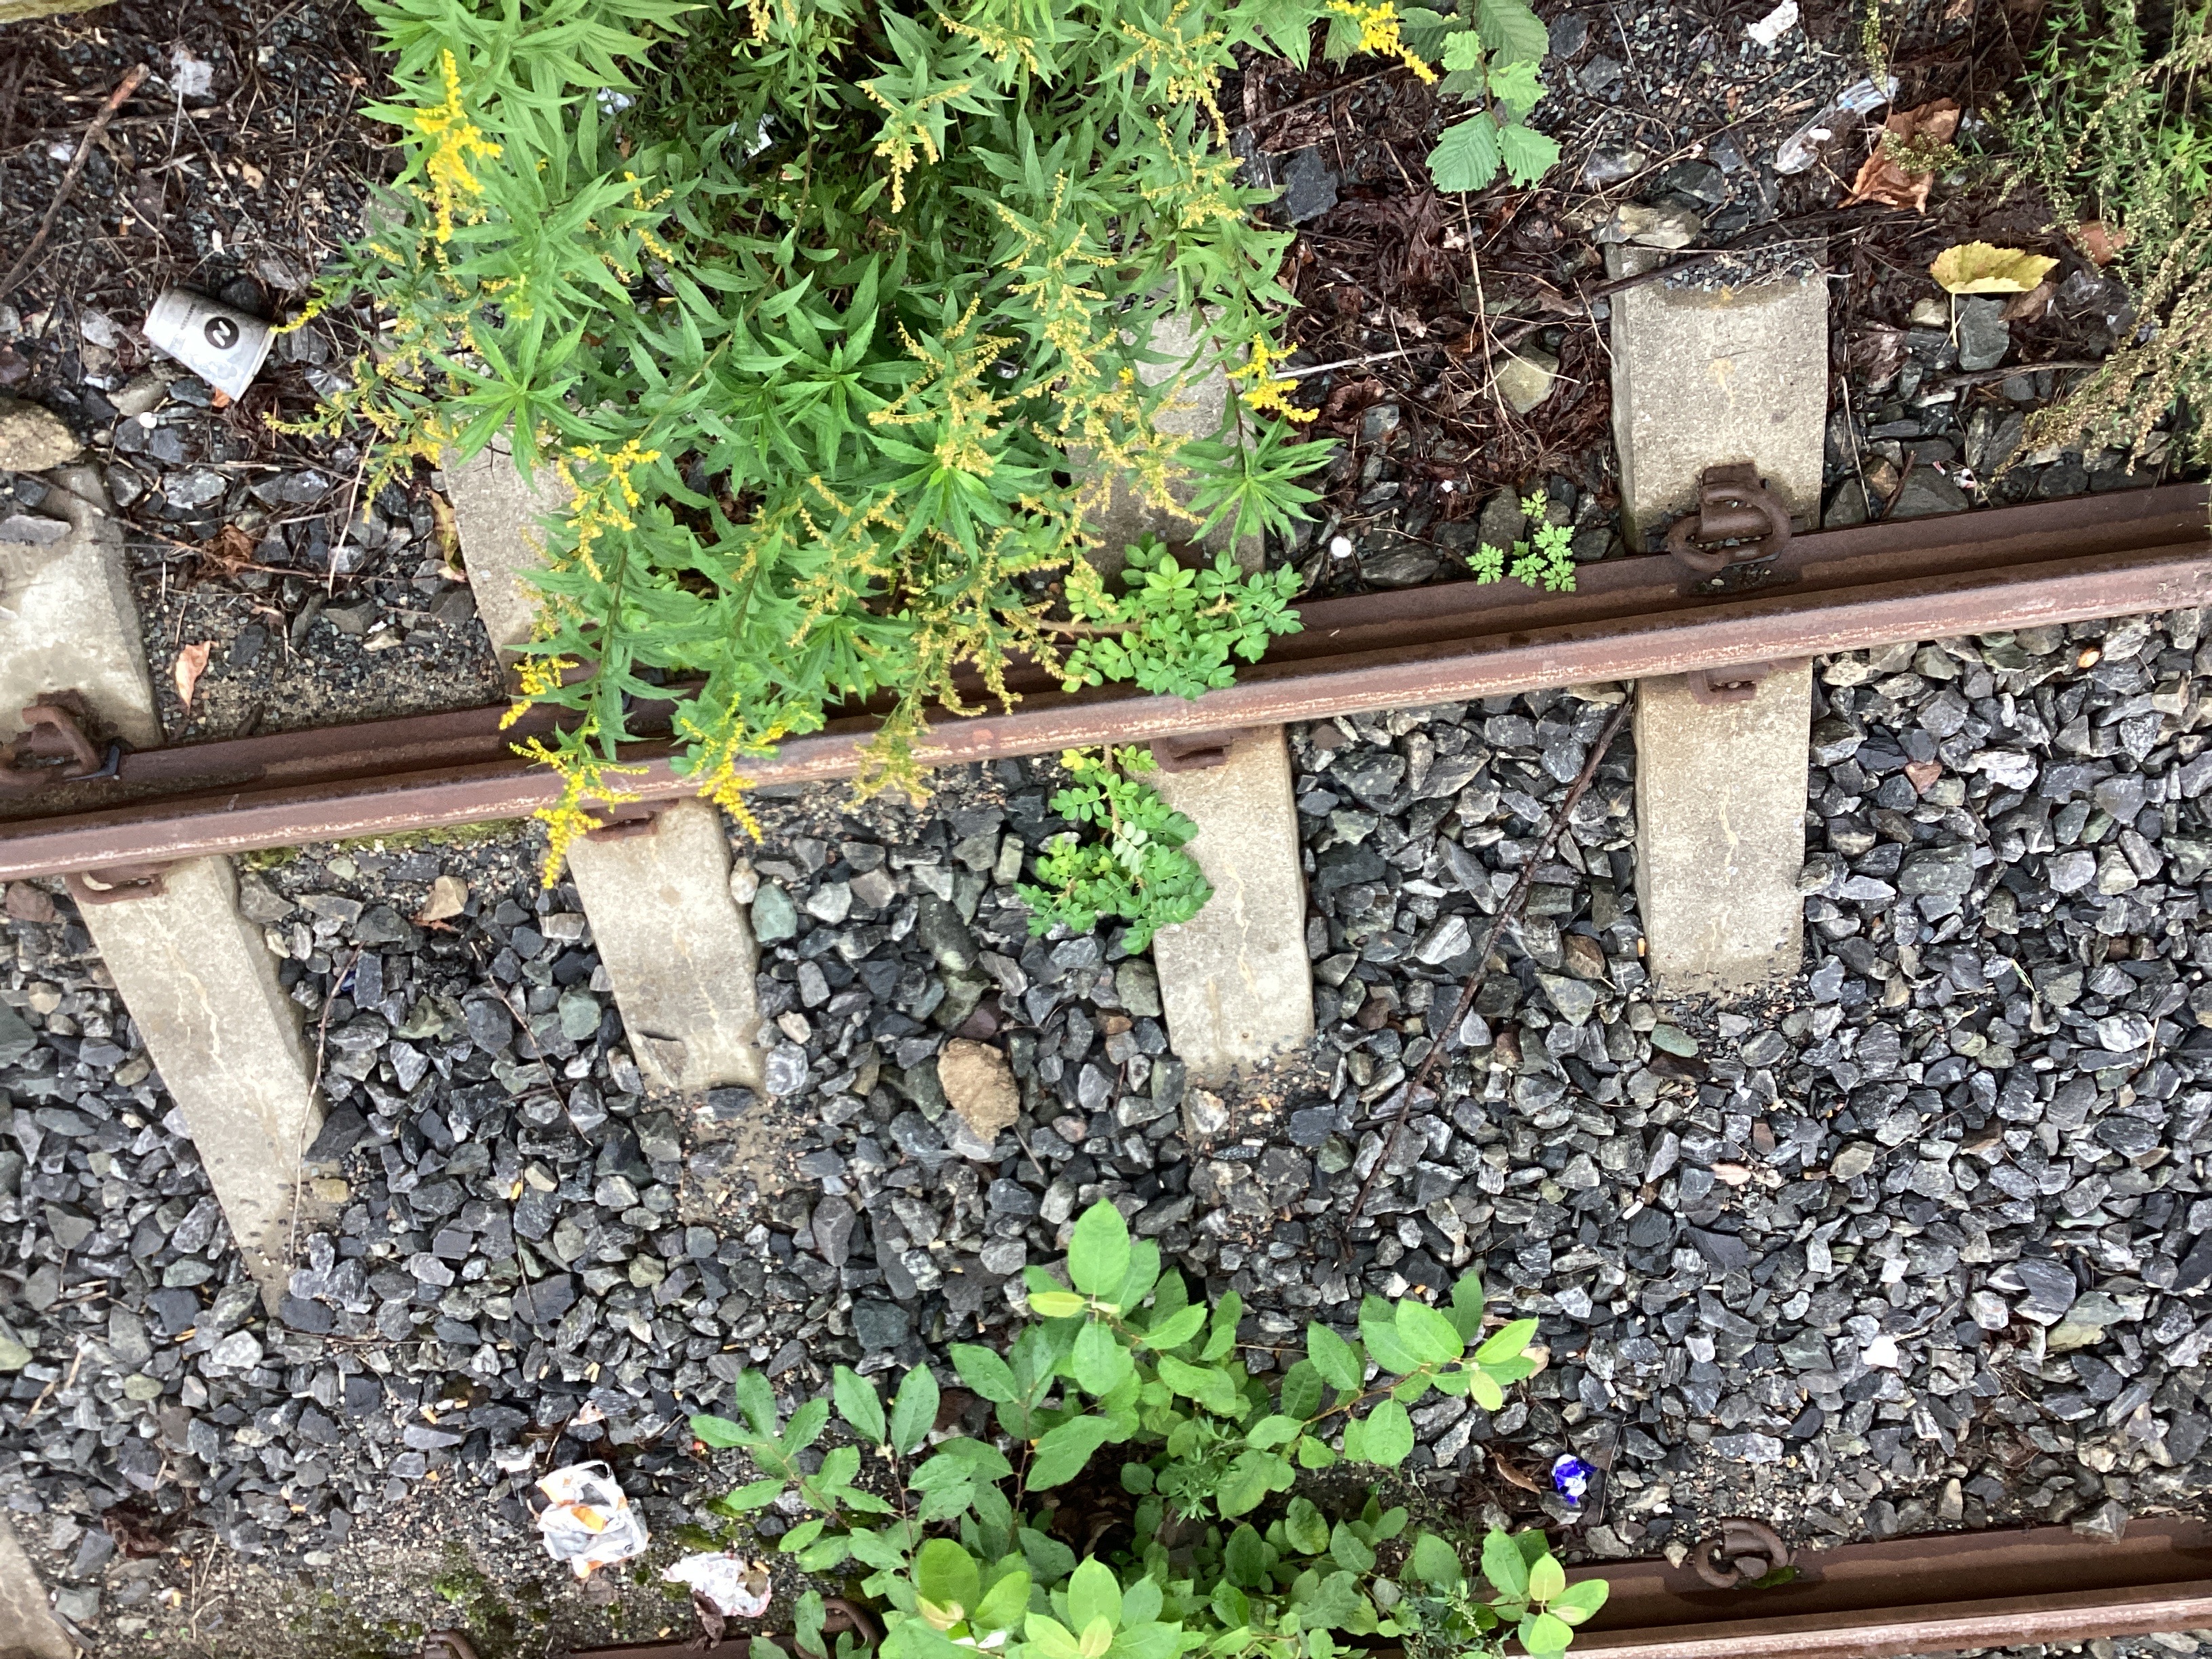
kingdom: Plantae
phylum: Tracheophyta
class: Magnoliopsida
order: Rosales
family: Rosaceae
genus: Rosa
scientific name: Rosa rugosa
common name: rynkerose
